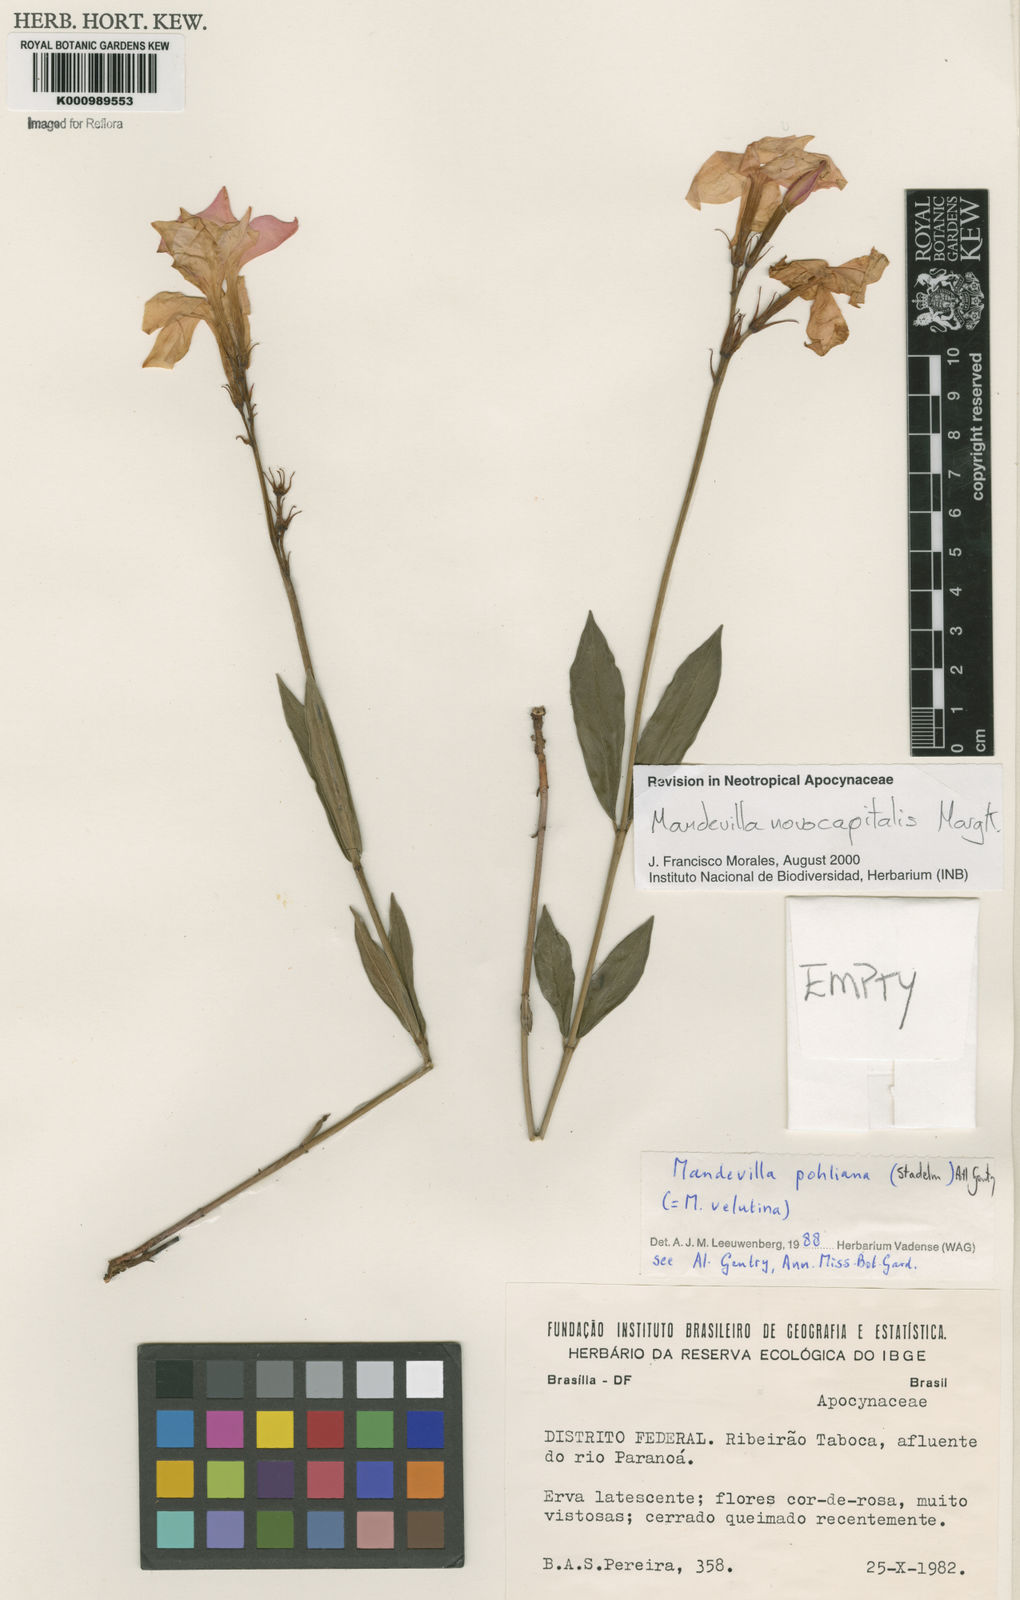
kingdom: Plantae
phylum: Tracheophyta
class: Magnoliopsida
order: Gentianales
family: Apocynaceae
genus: Mandevilla
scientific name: Mandevilla novocapitalis
